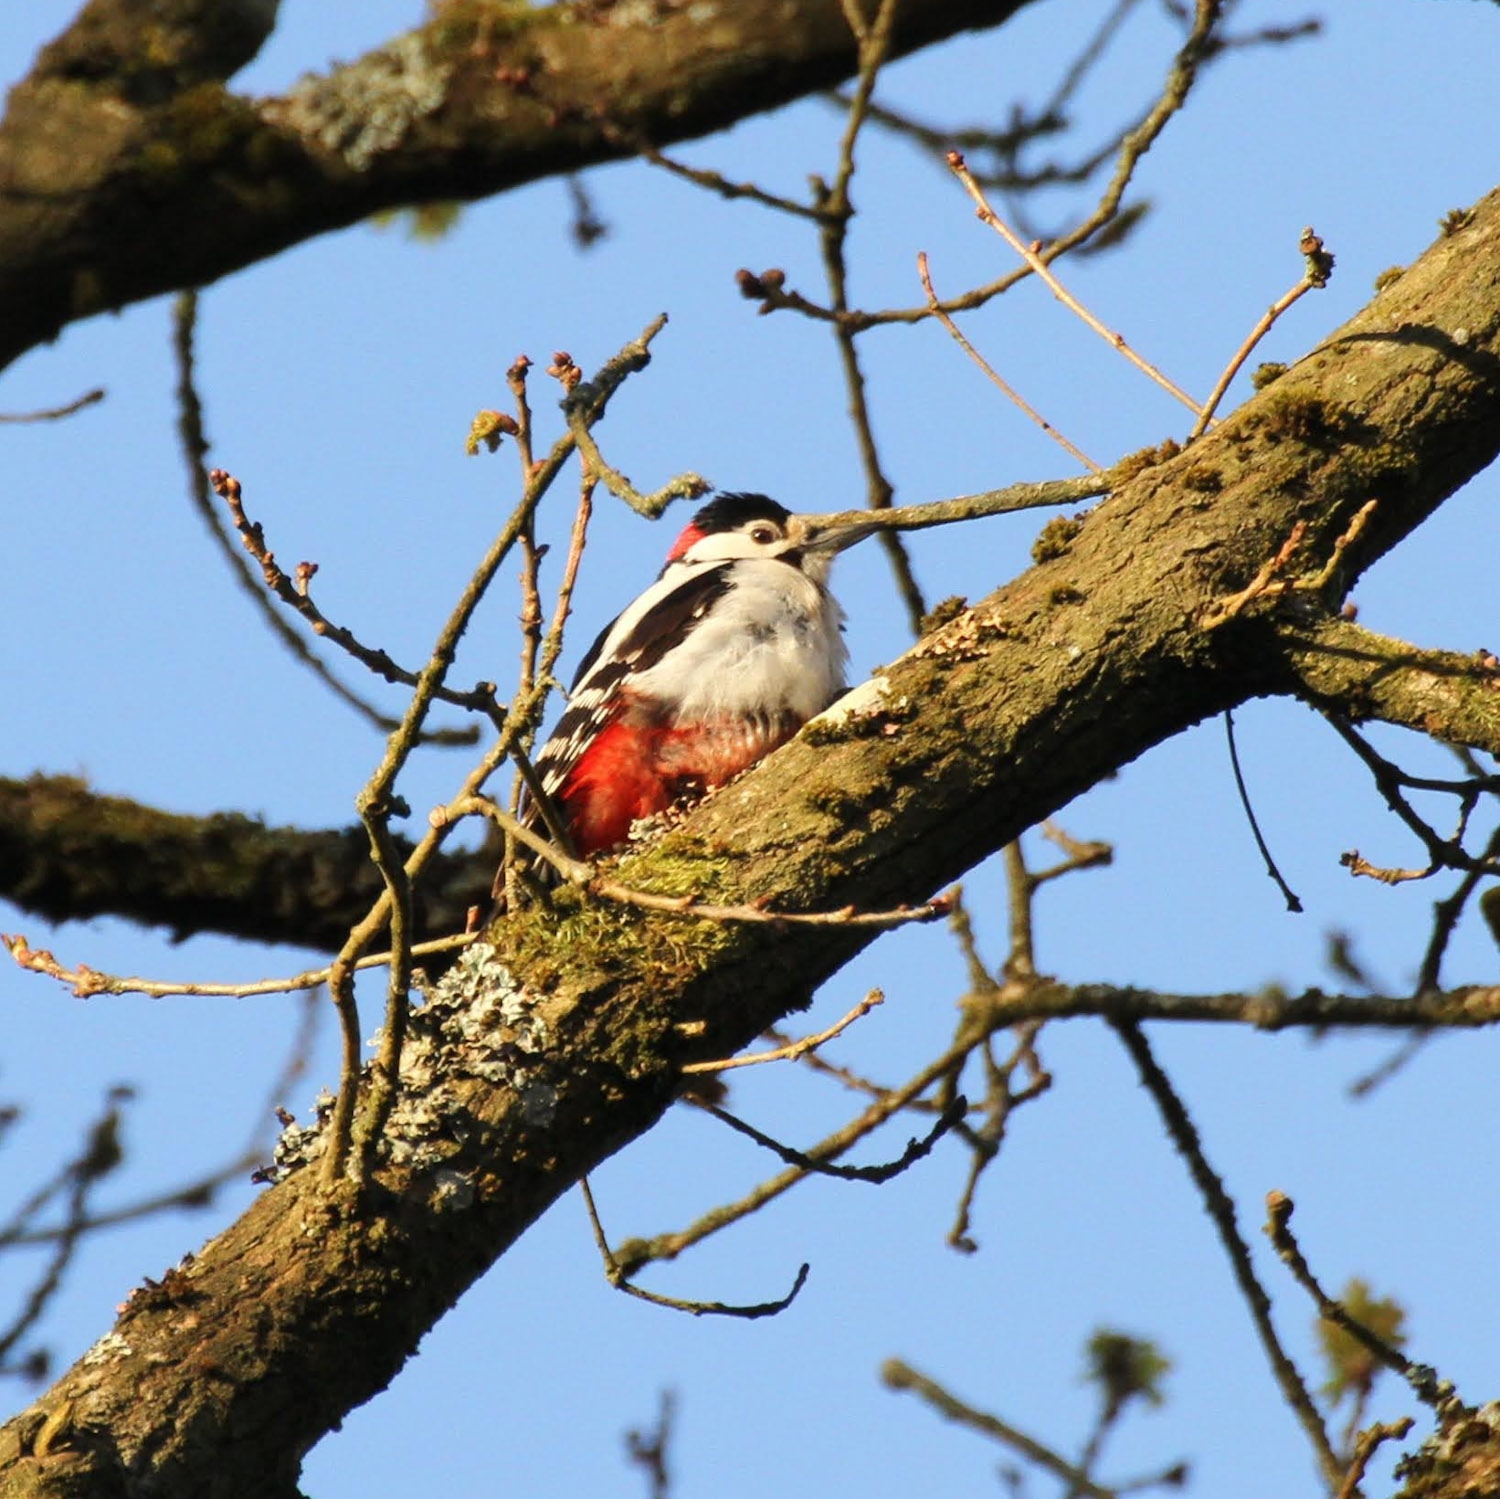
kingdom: Animalia
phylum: Chordata
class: Aves
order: Piciformes
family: Picidae
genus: Dendrocopos
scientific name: Dendrocopos major
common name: Stor flagspætte
